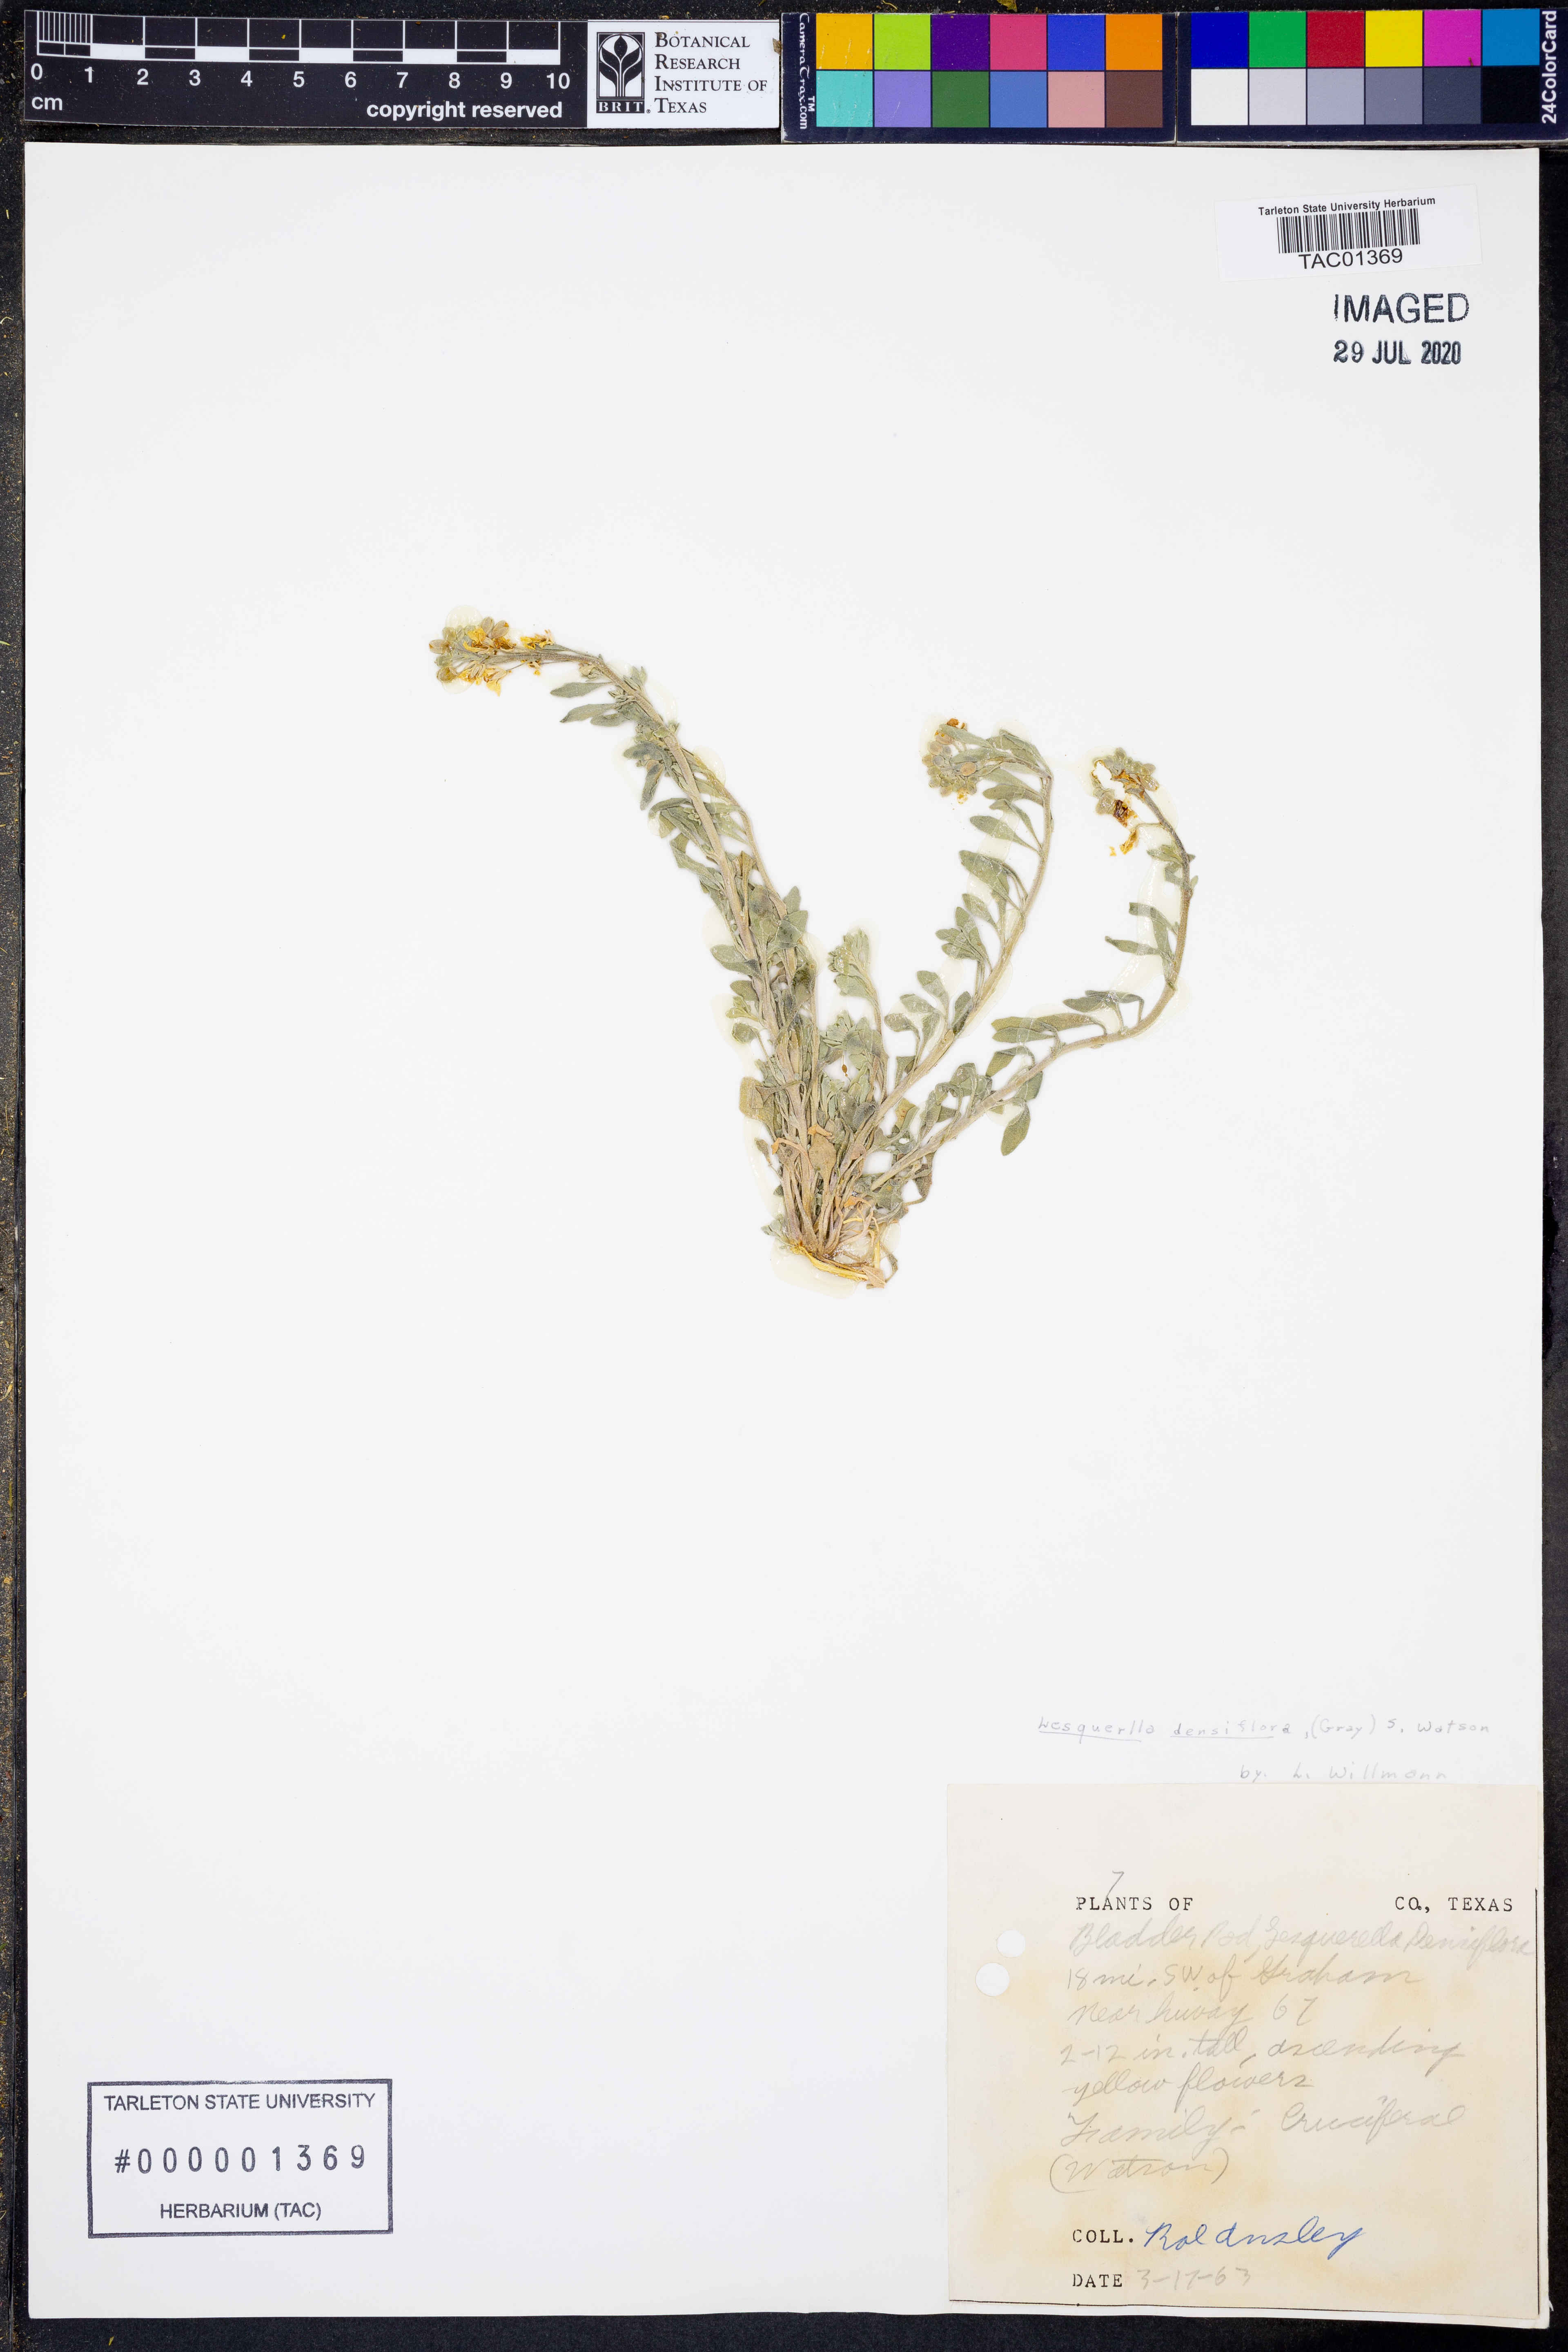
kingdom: Plantae
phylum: Tracheophyta
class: Magnoliopsida
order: Brassicales
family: Brassicaceae
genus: Physaria
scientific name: Physaria densiflora
